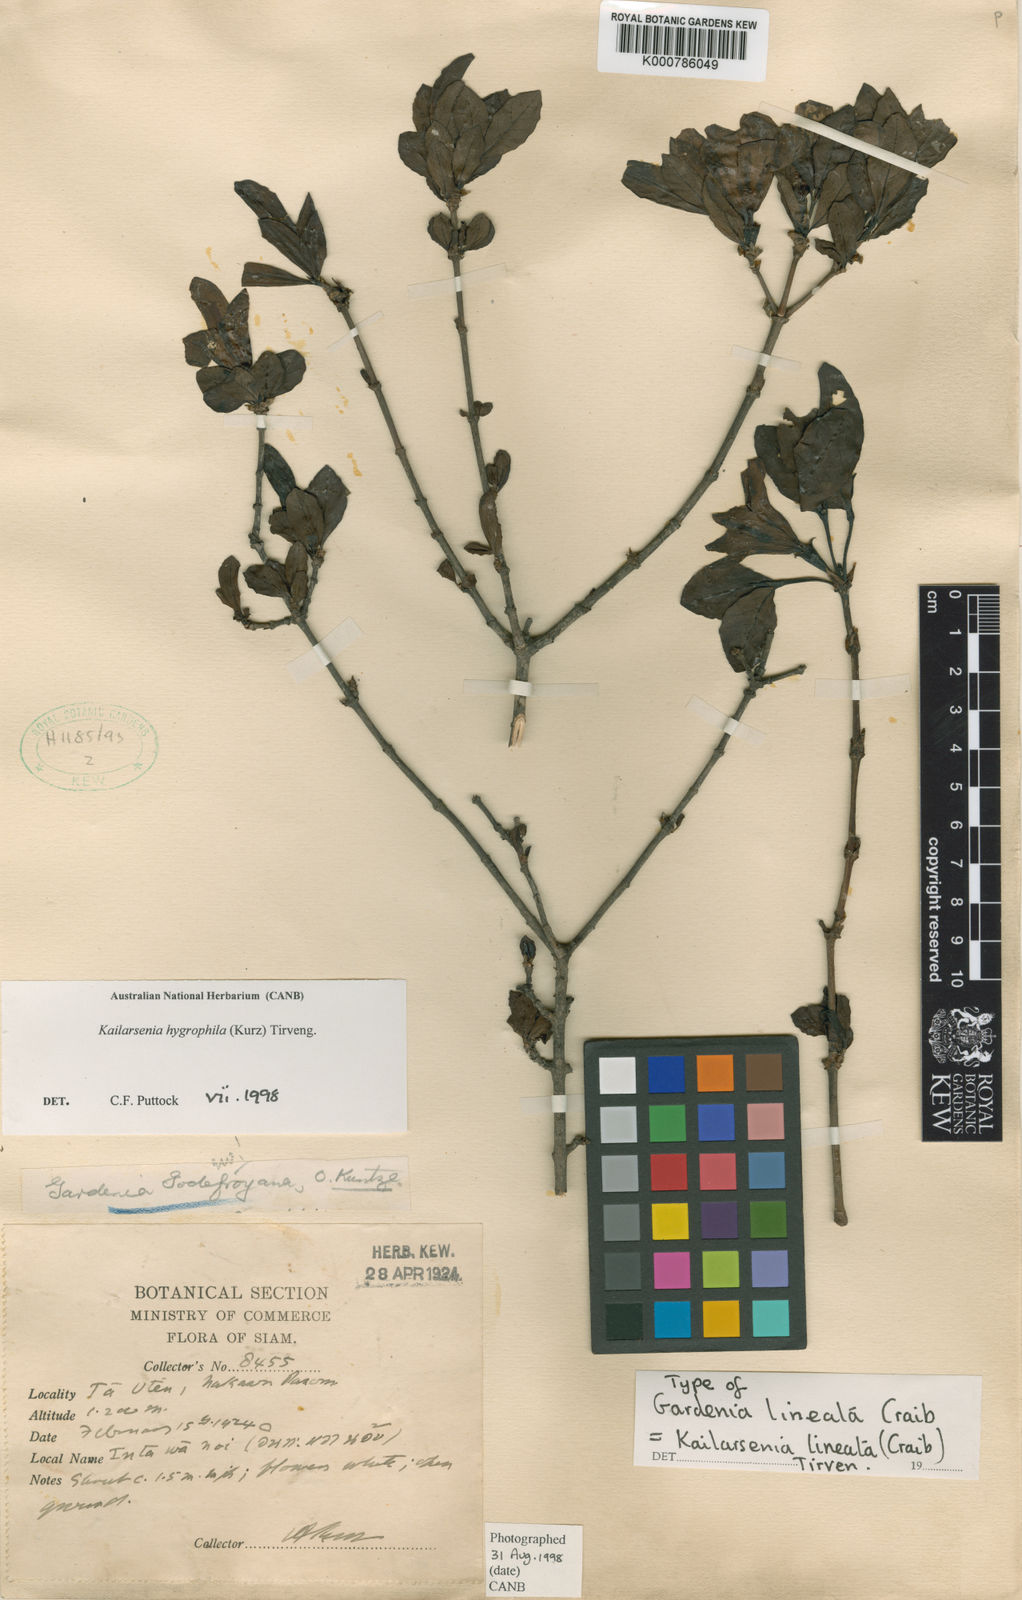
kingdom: Plantae
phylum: Tracheophyta
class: Magnoliopsida
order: Gentianales
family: Rubiaceae
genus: Kailarsenia
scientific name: Kailarsenia lineata
